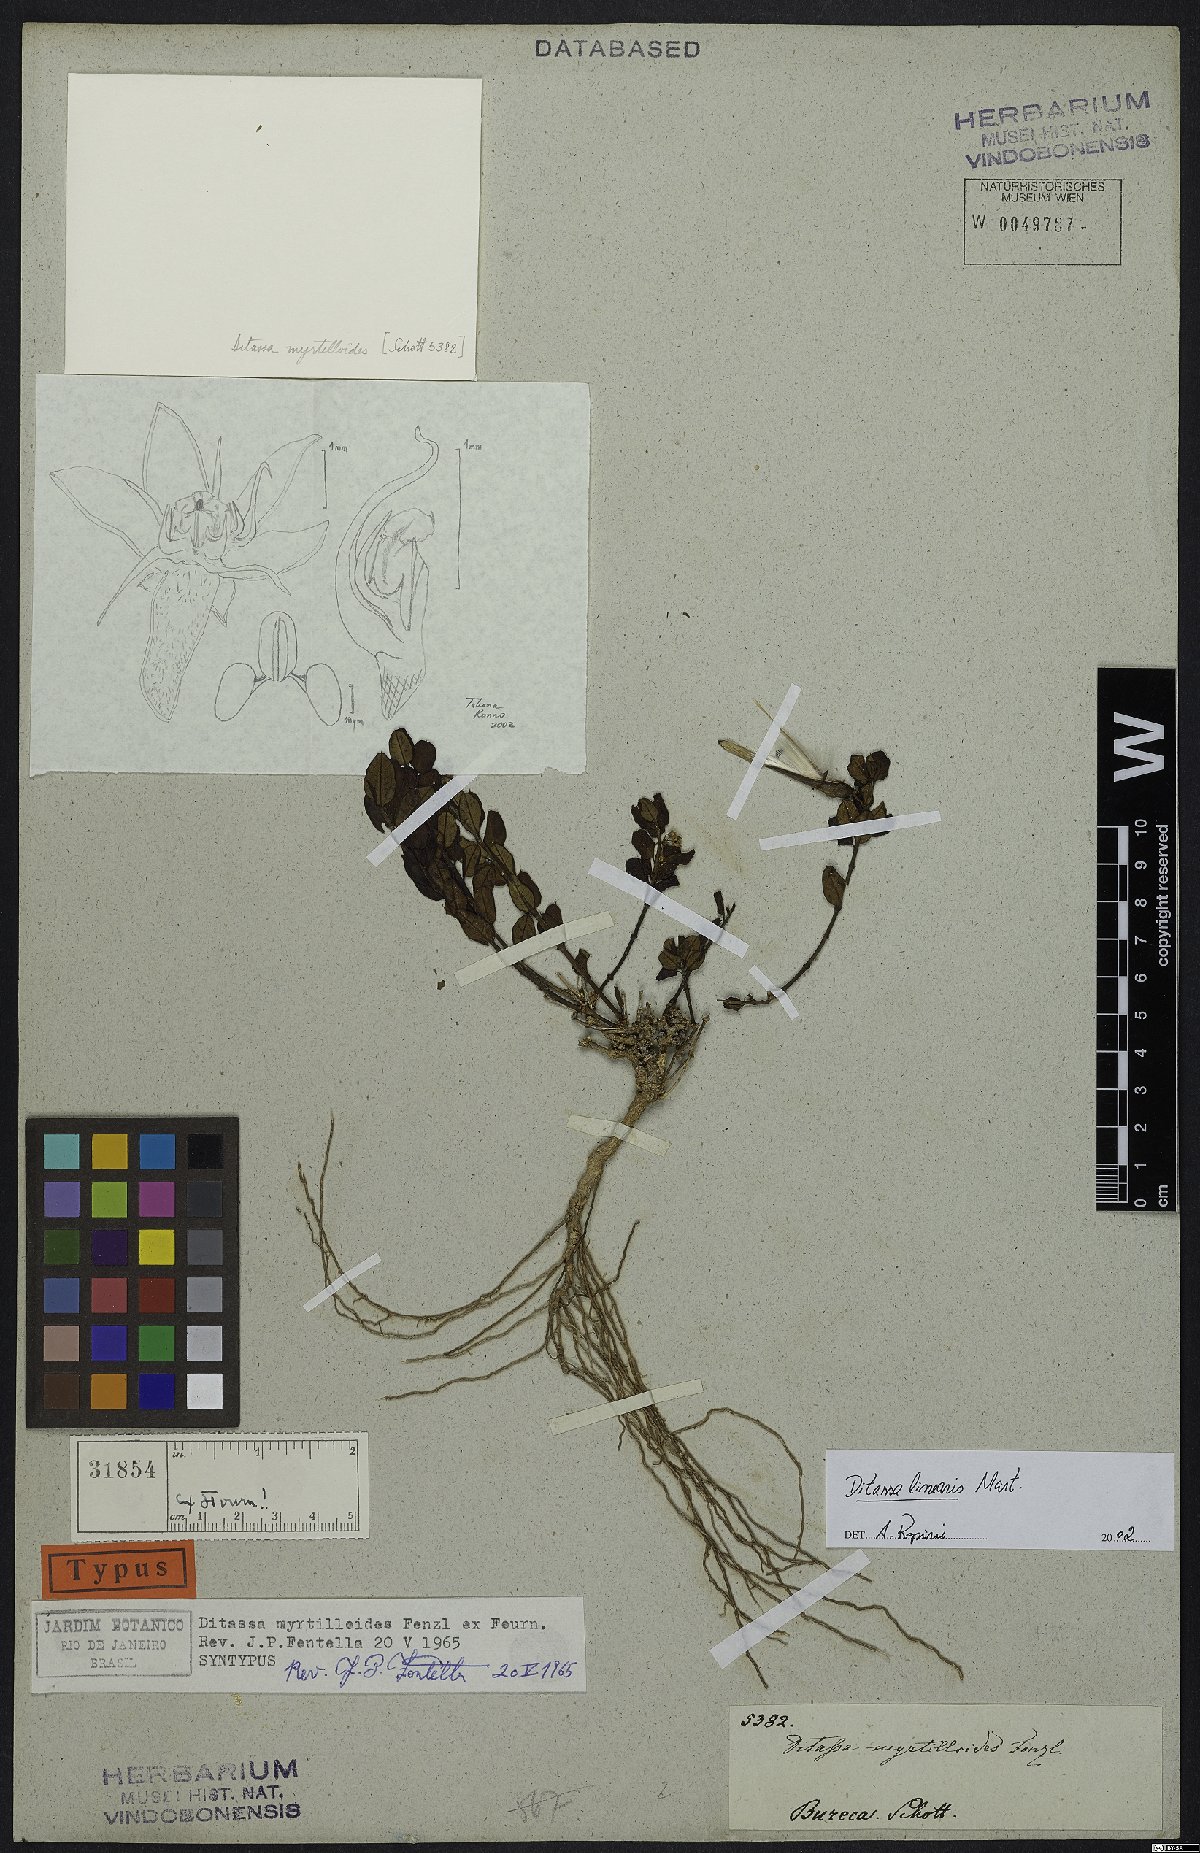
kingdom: Plantae
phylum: Tracheophyta
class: Magnoliopsida
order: Gentianales
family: Apocynaceae
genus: Ditassa
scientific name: Ditassa linearis
